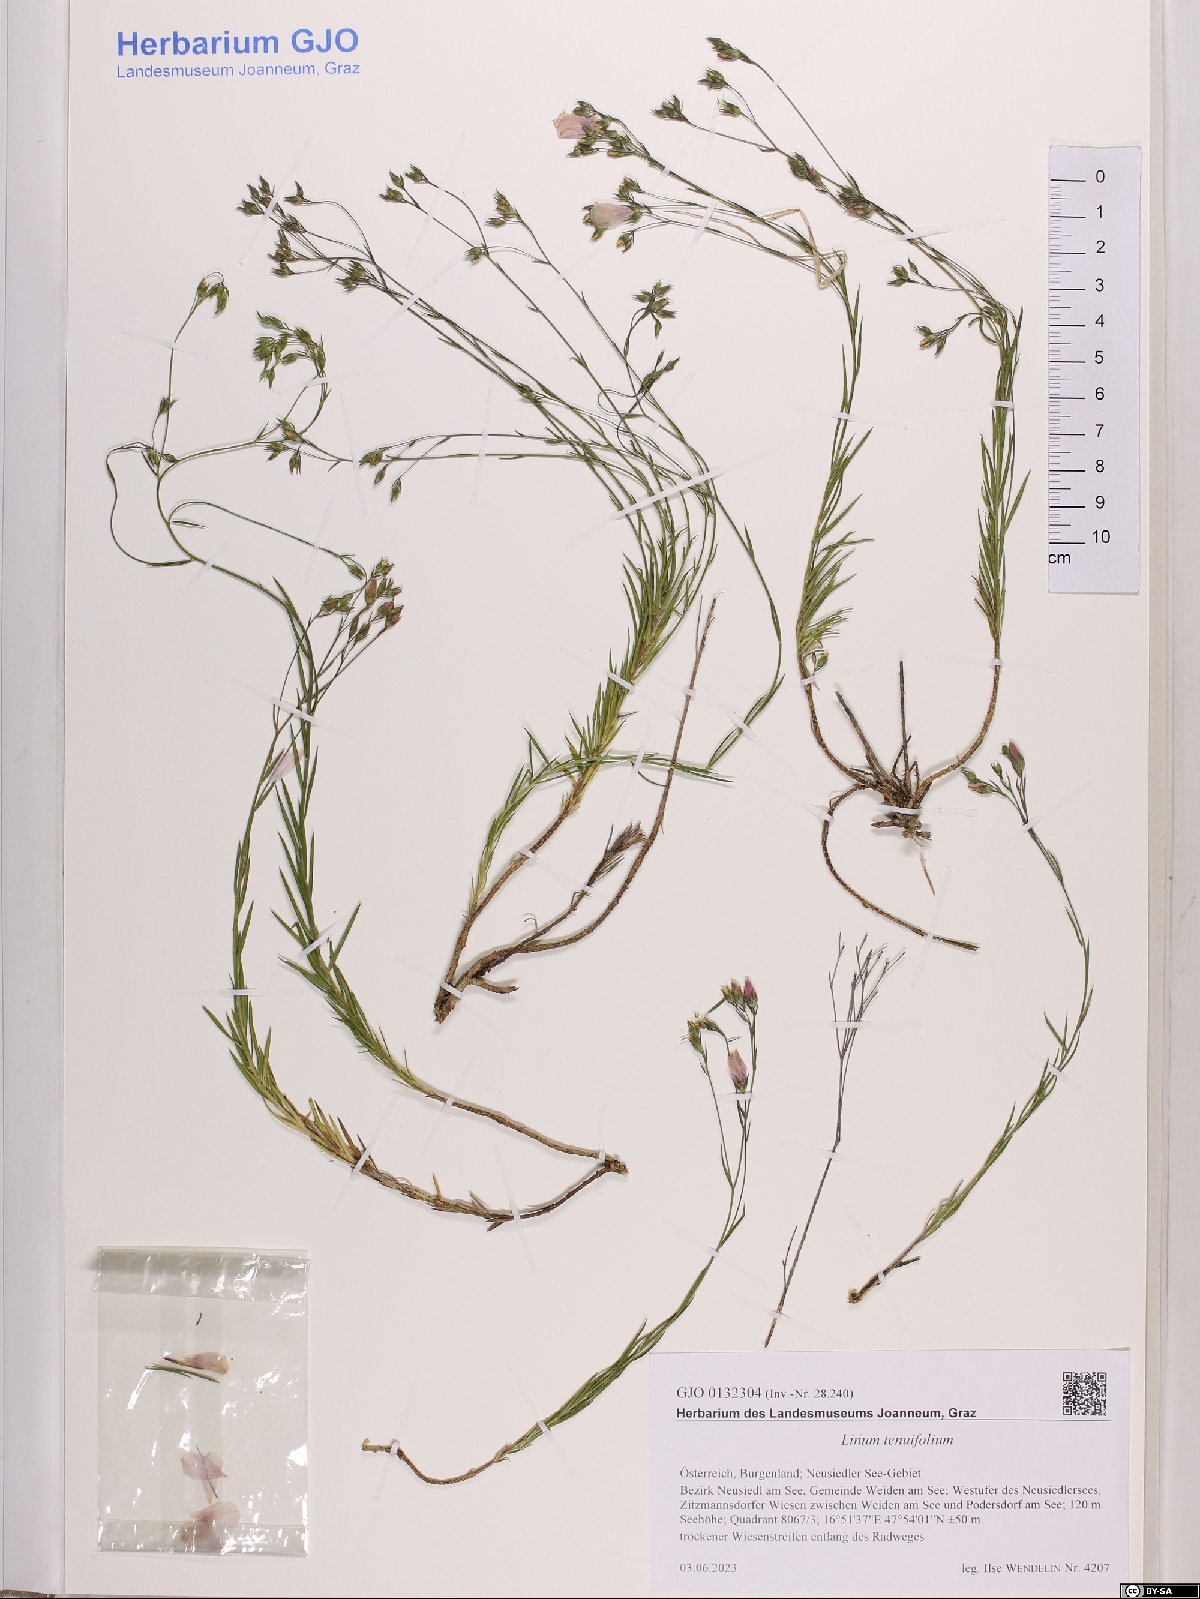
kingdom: Plantae
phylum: Tracheophyta
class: Magnoliopsida
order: Malpighiales
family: Linaceae
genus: Linum
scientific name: Linum tenuifolium
